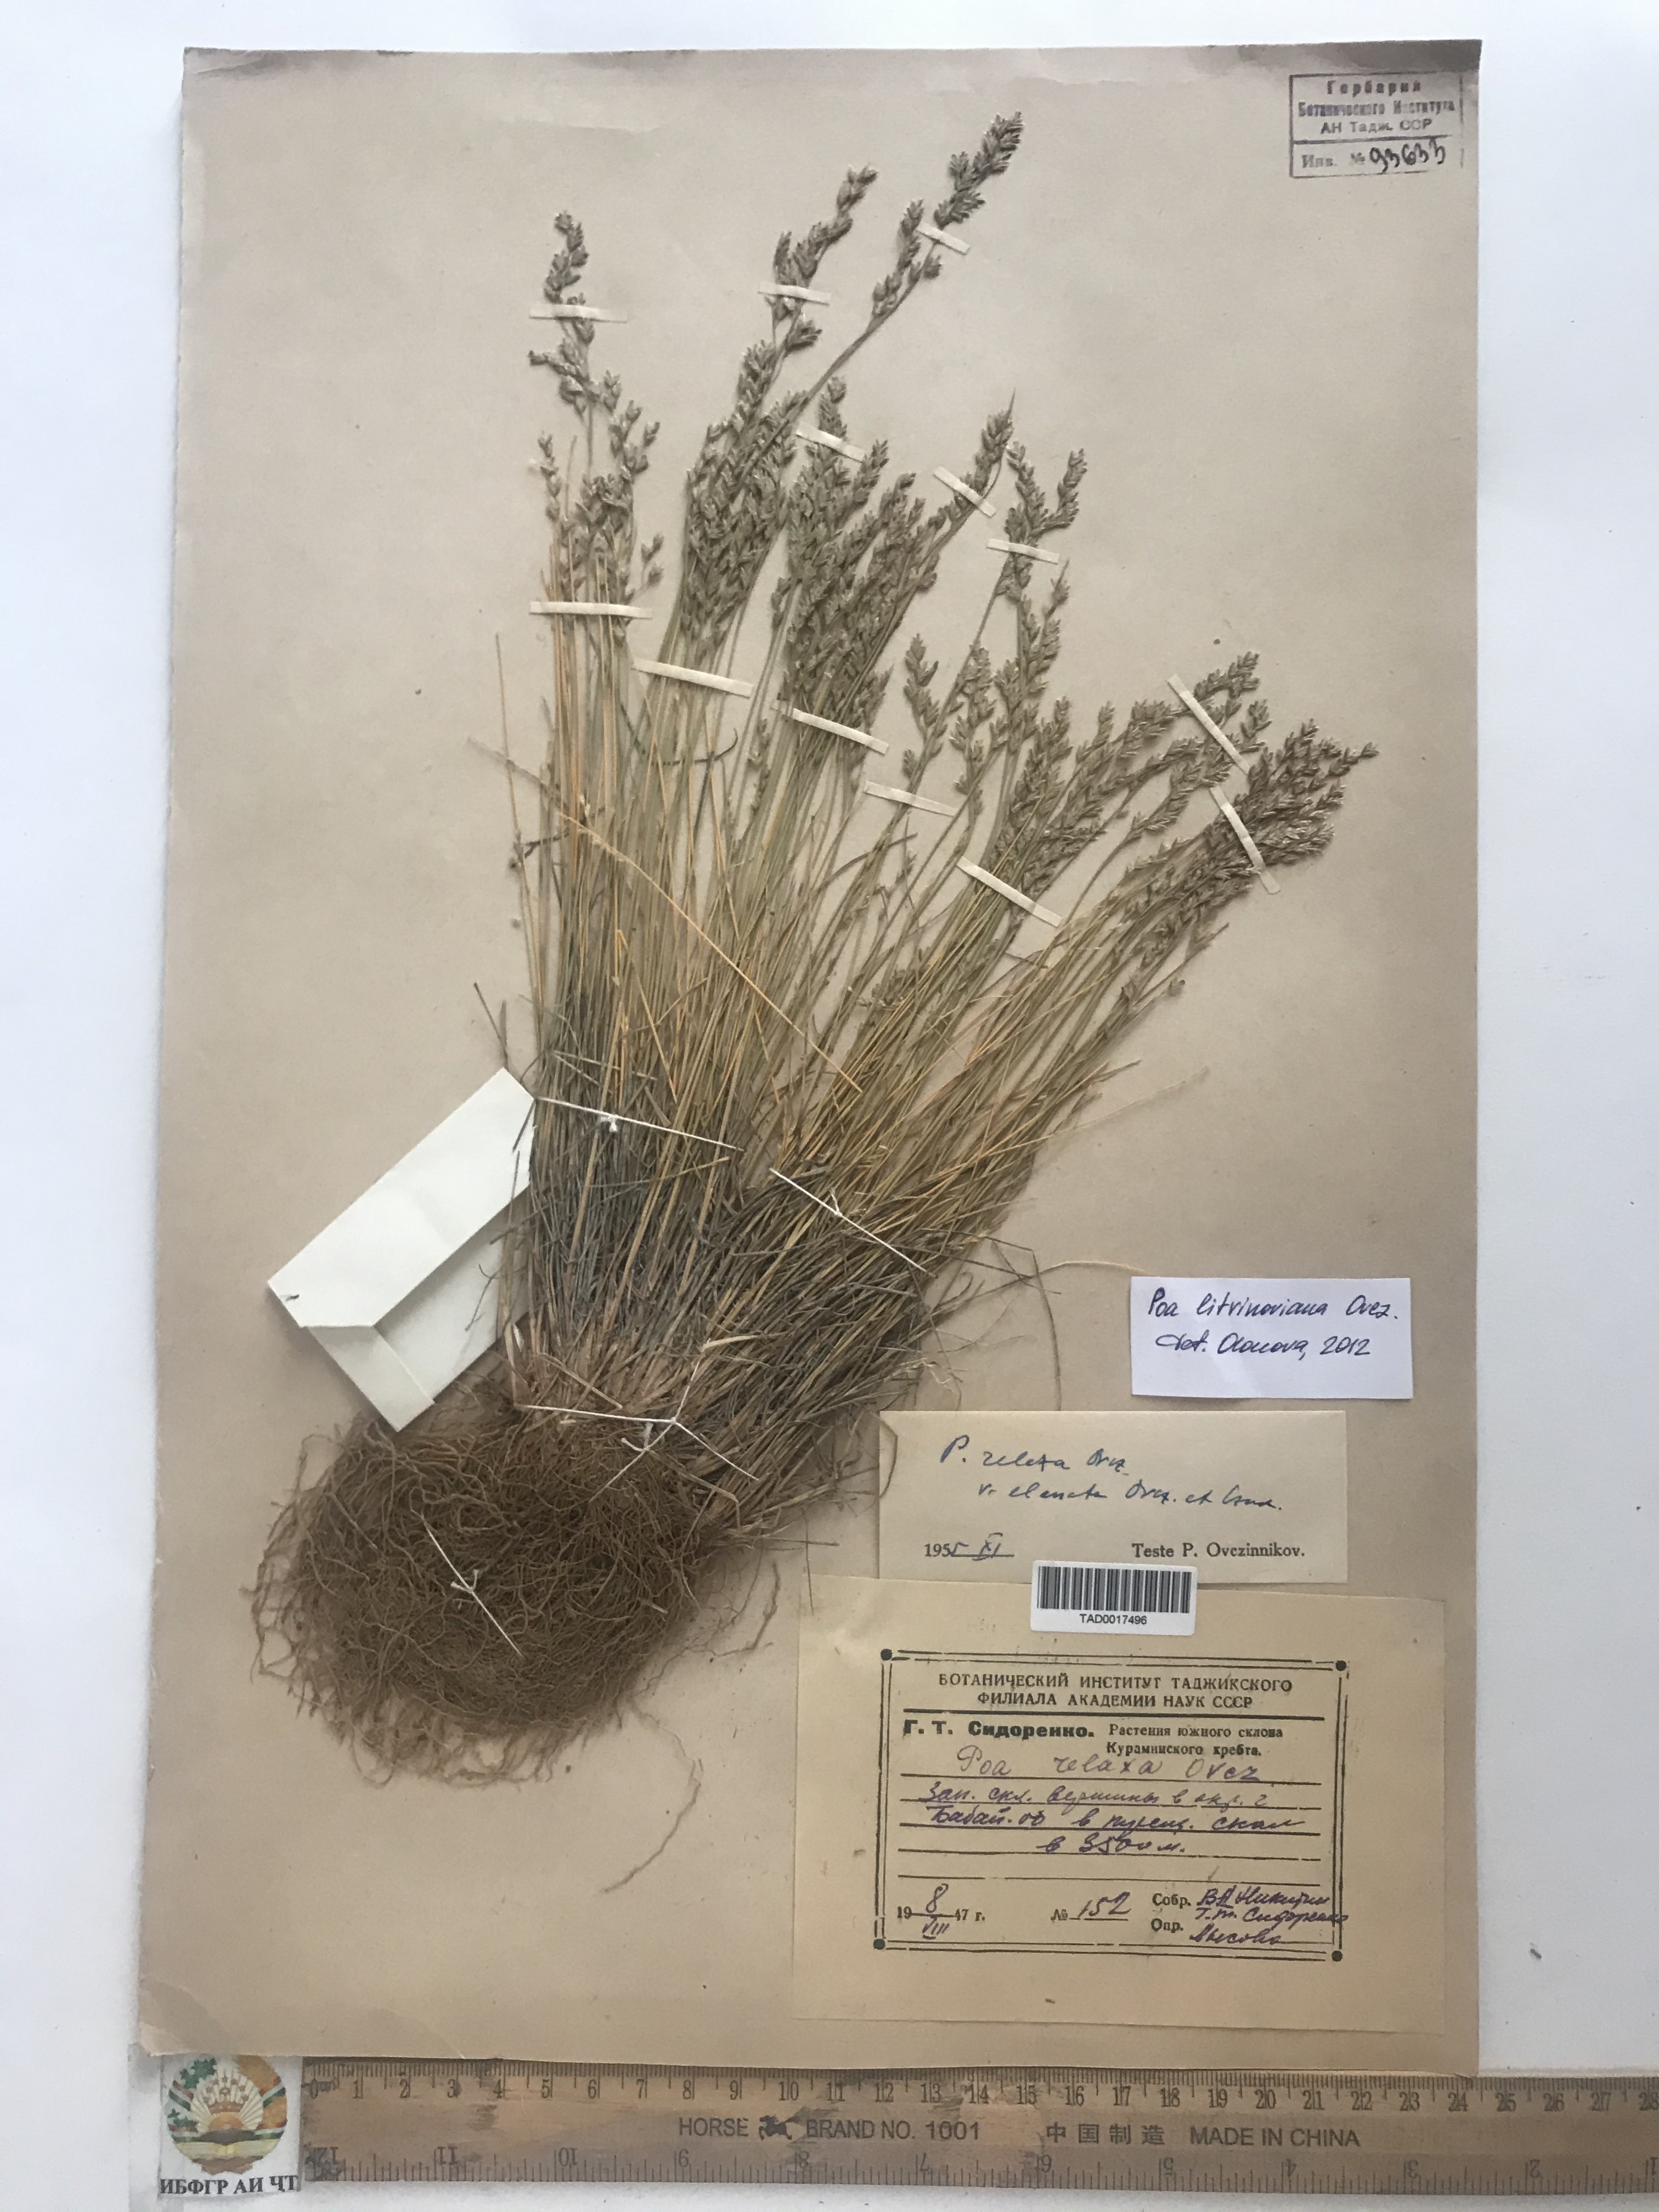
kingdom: Plantae
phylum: Tracheophyta
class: Liliopsida
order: Poales
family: Poaceae
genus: Poa
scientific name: Poa glauca
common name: Glaucous bluegrass
